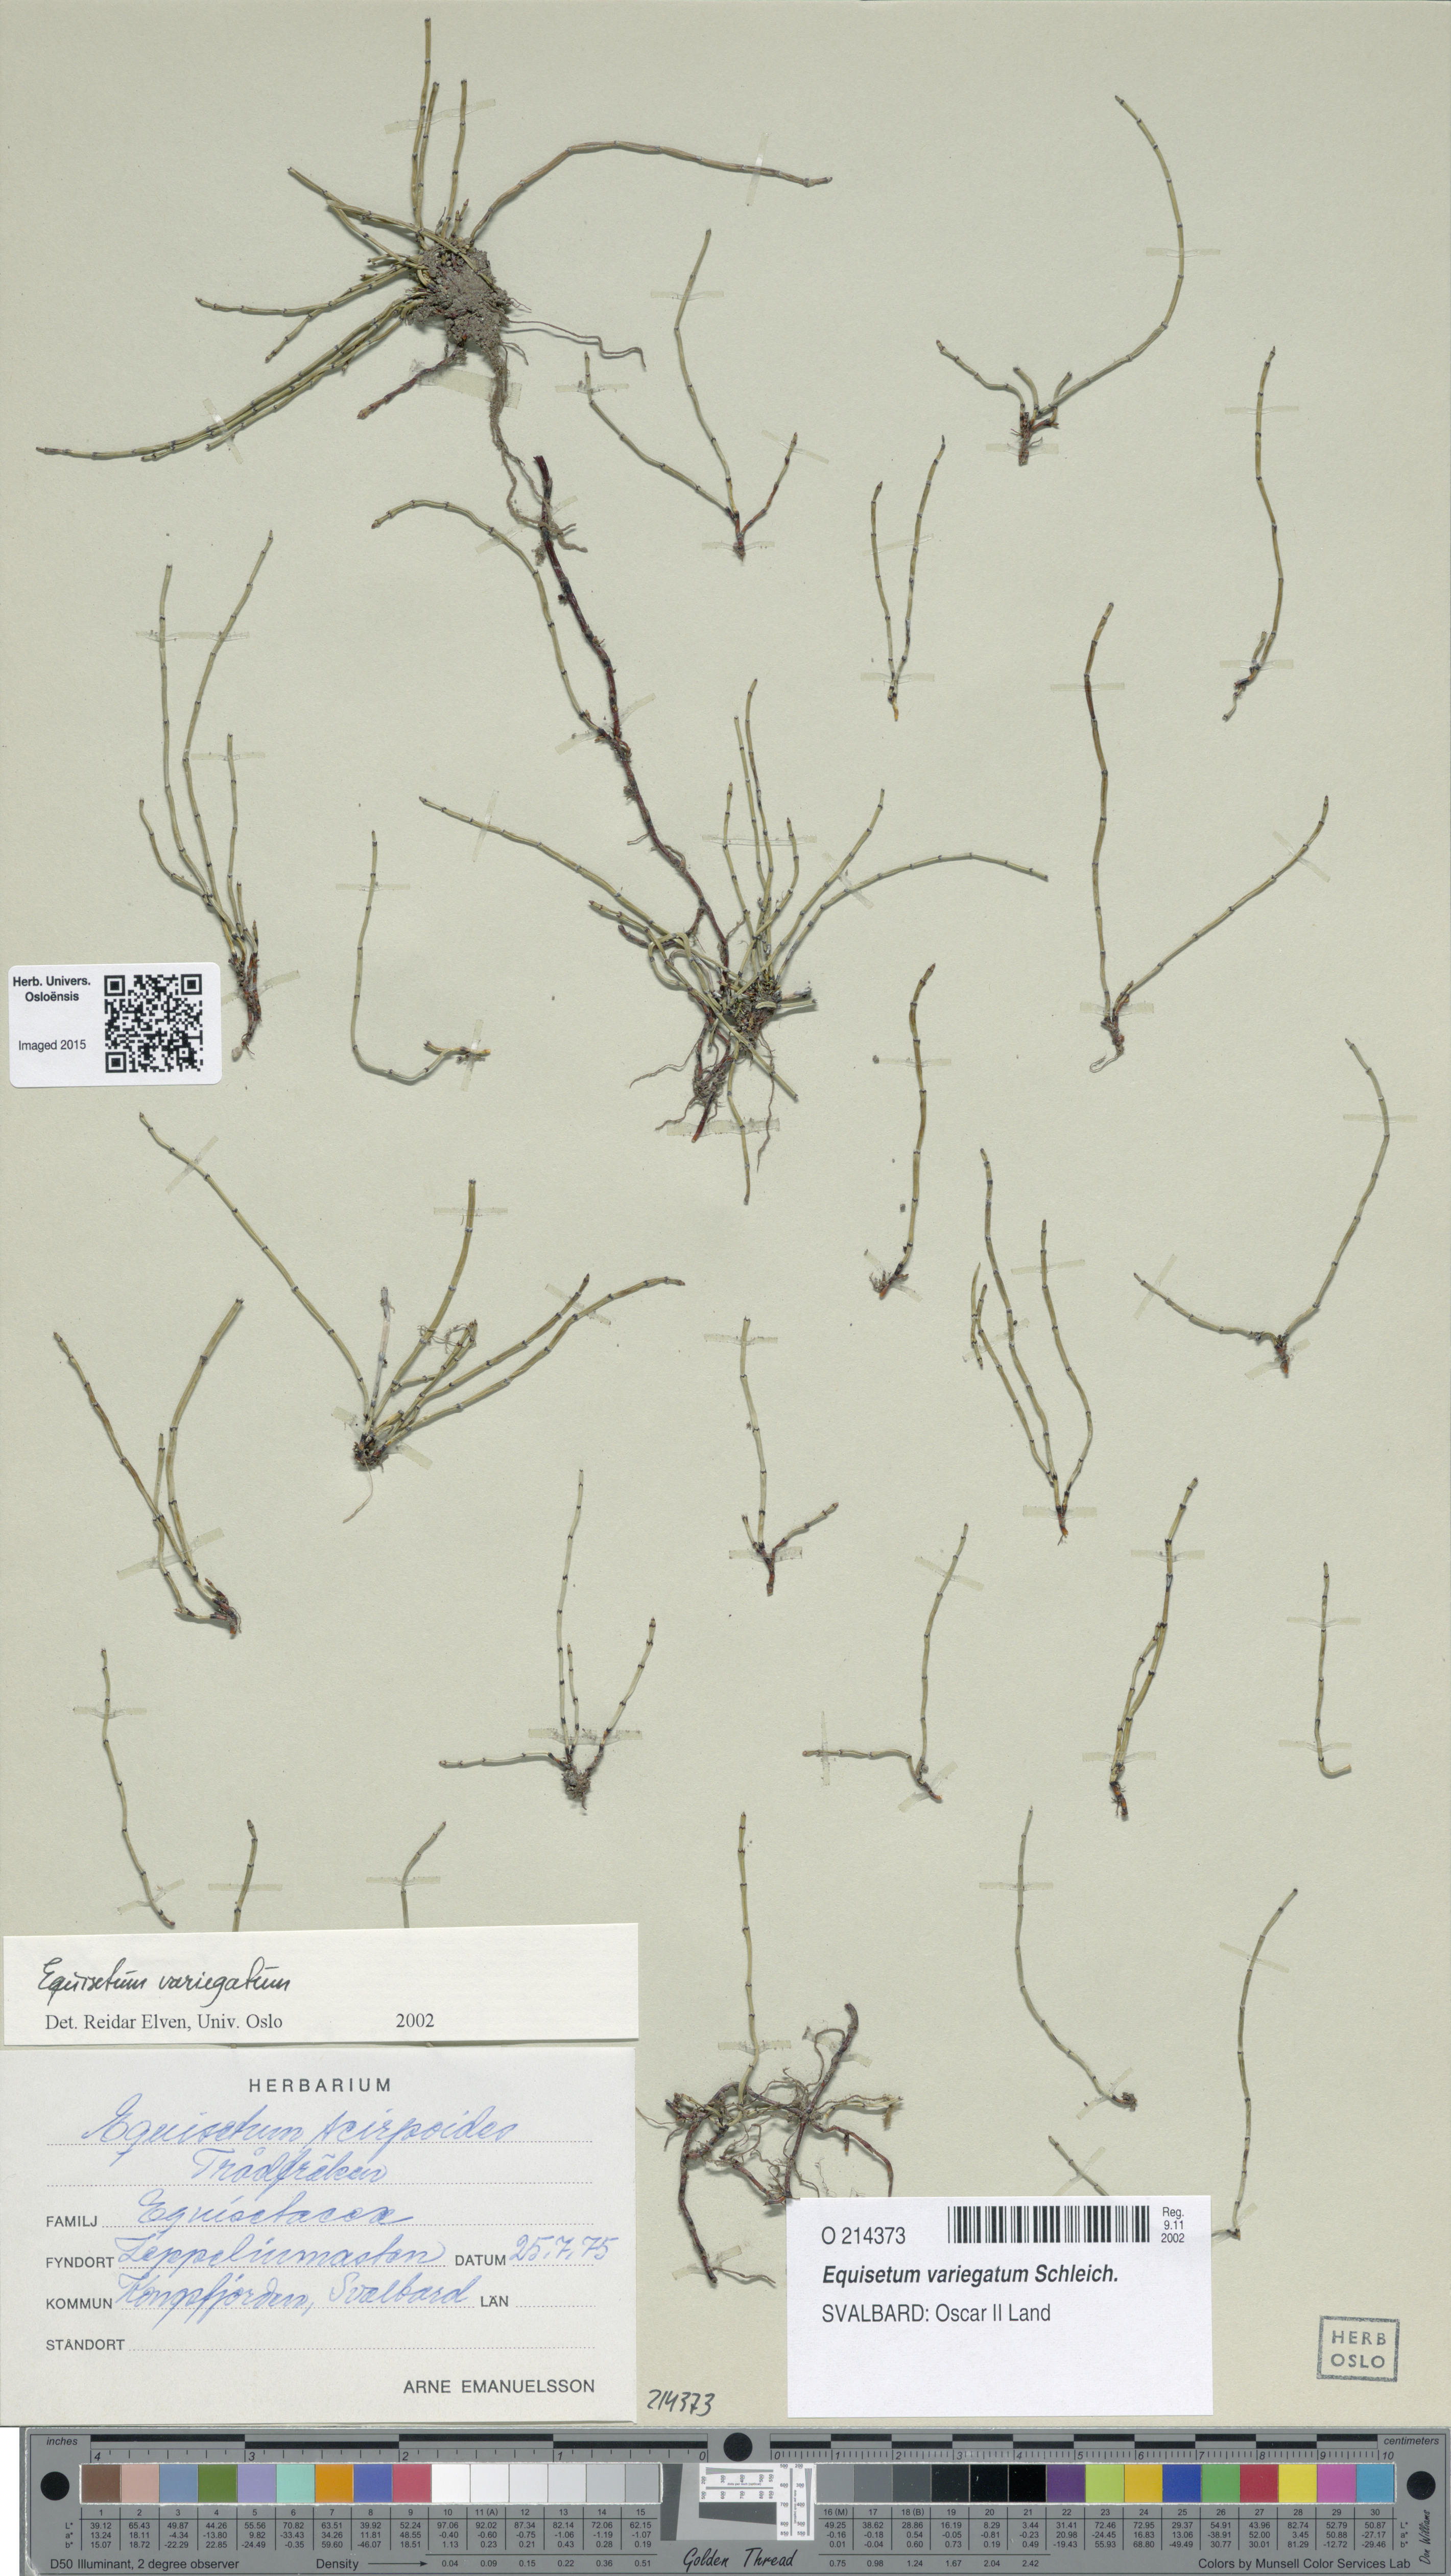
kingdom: Plantae
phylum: Tracheophyta
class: Polypodiopsida
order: Equisetales
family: Equisetaceae
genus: Equisetum
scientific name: Equisetum variegatum
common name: Variegated horsetail
